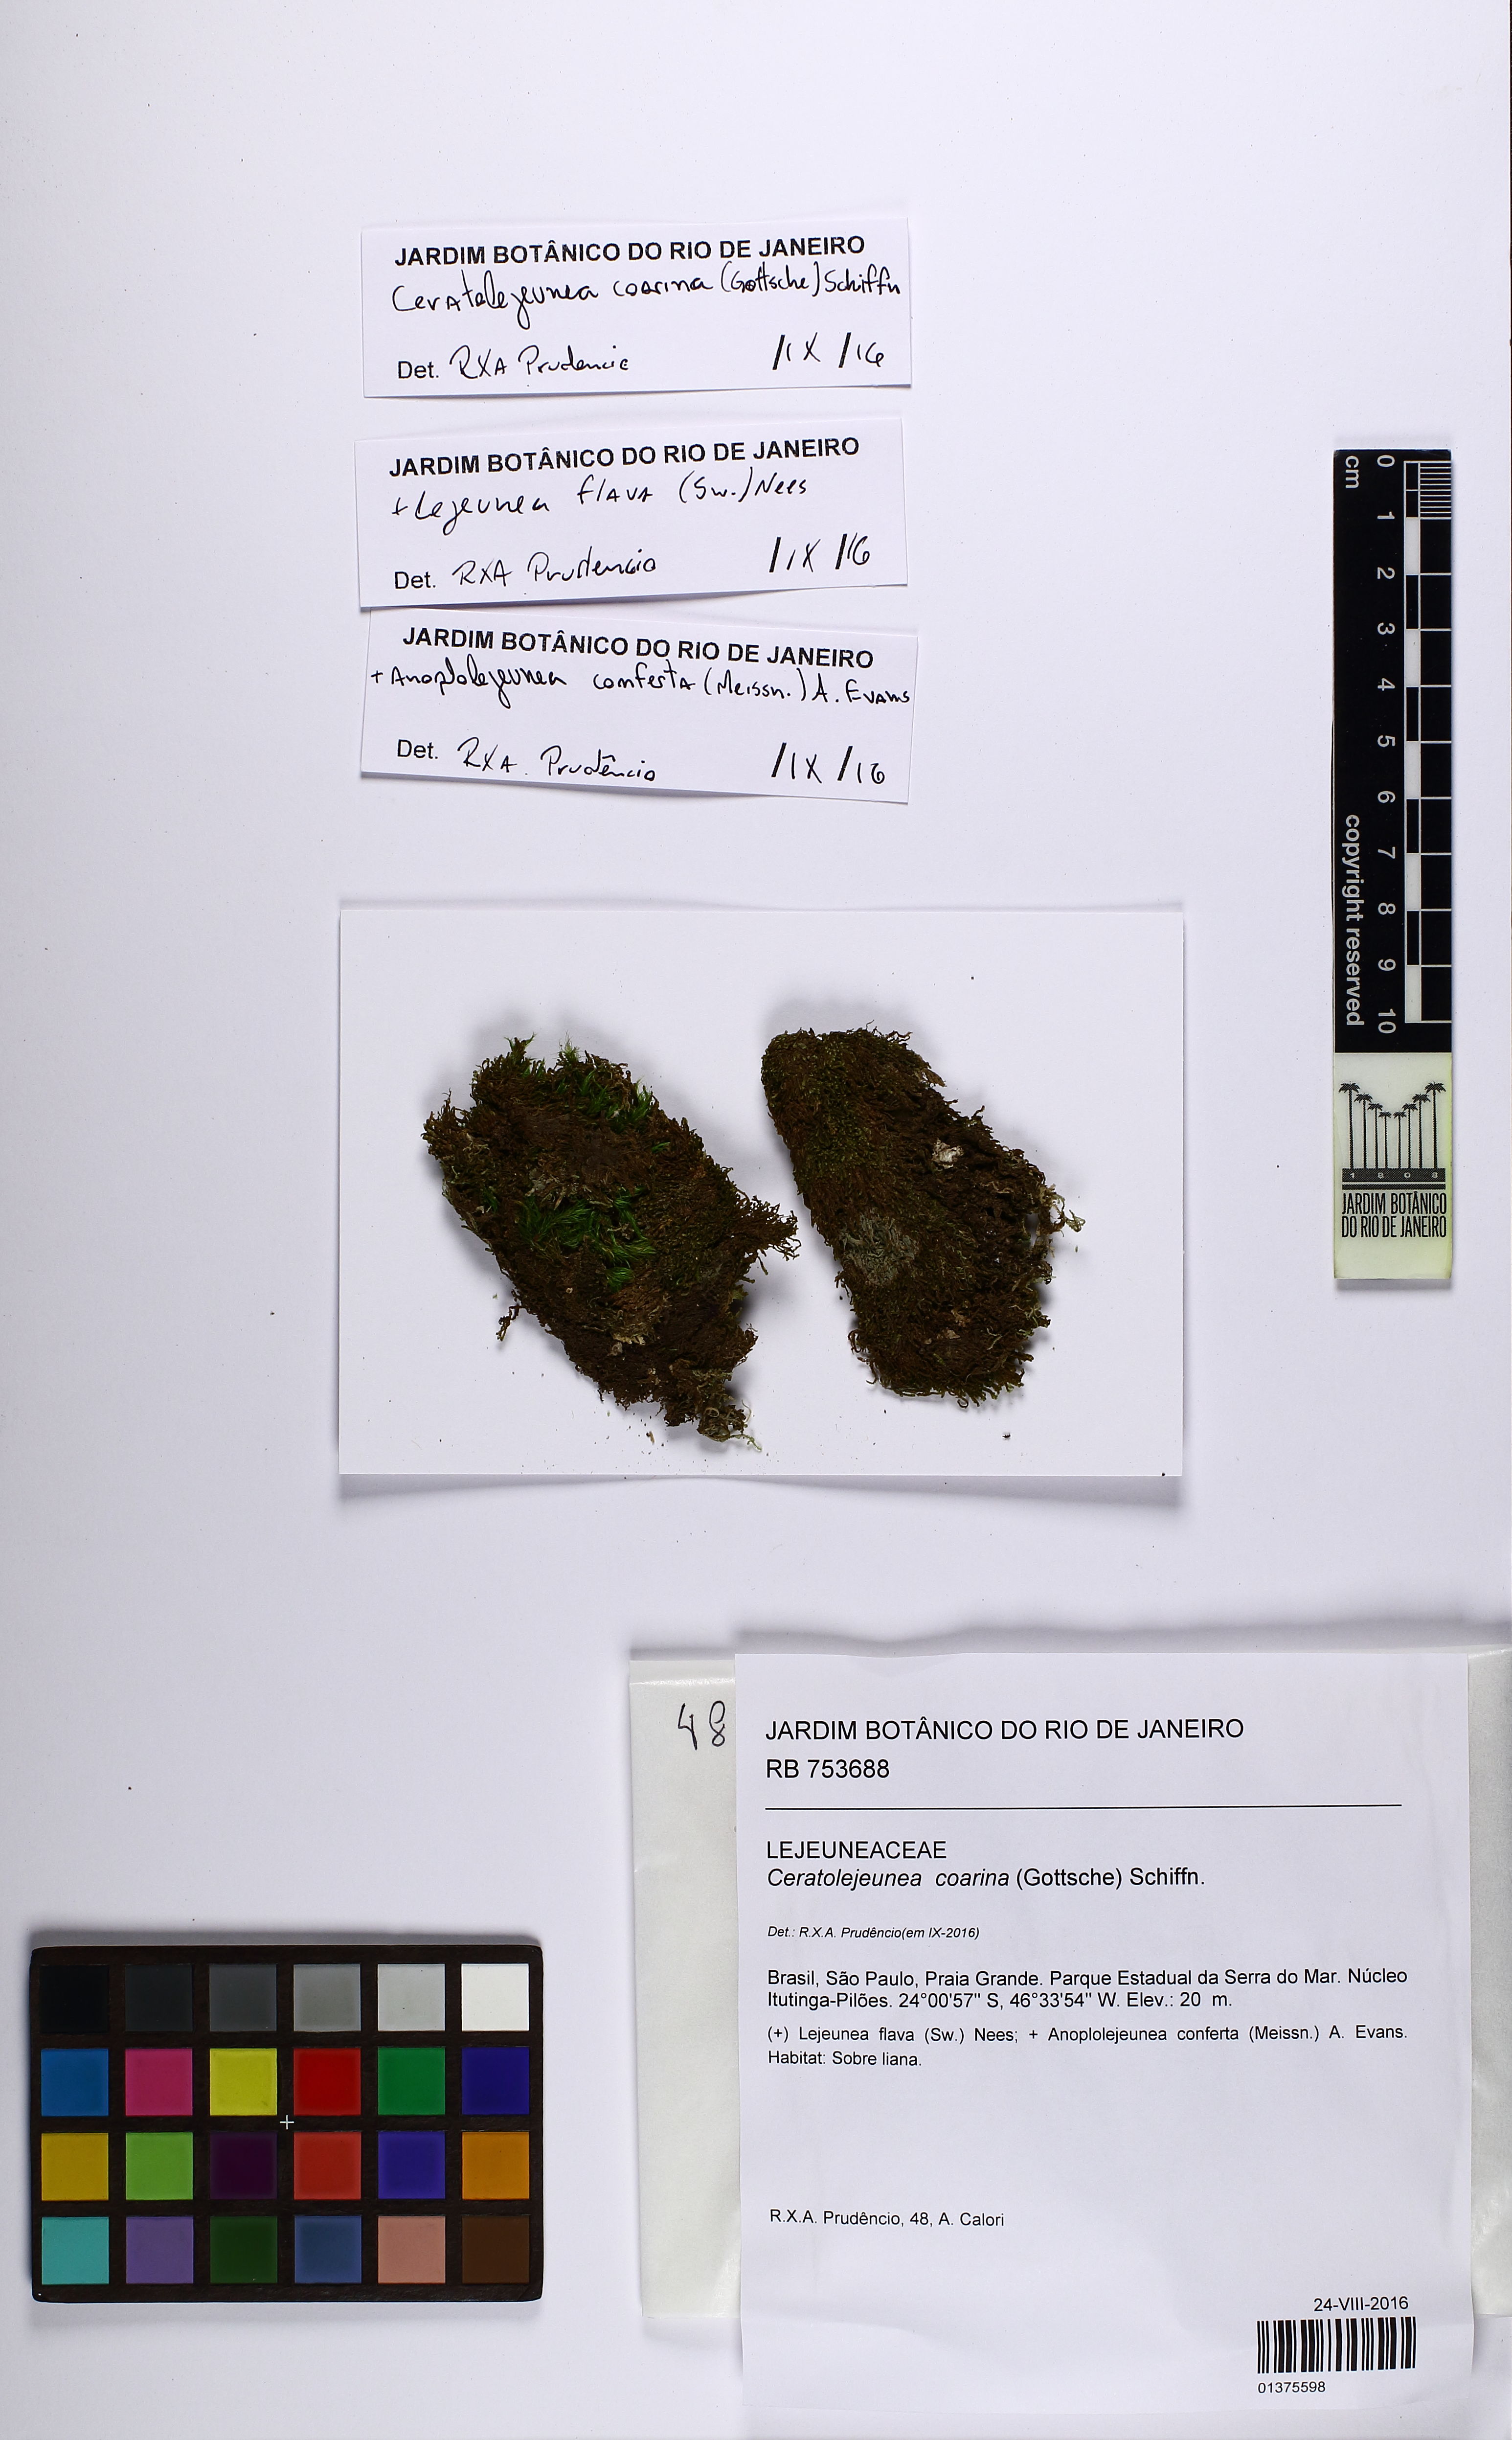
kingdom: Plantae
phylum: Marchantiophyta
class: Jungermanniopsida
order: Porellales
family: Lejeuneaceae
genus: Ceratolejeunea
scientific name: Ceratolejeunea coarina
